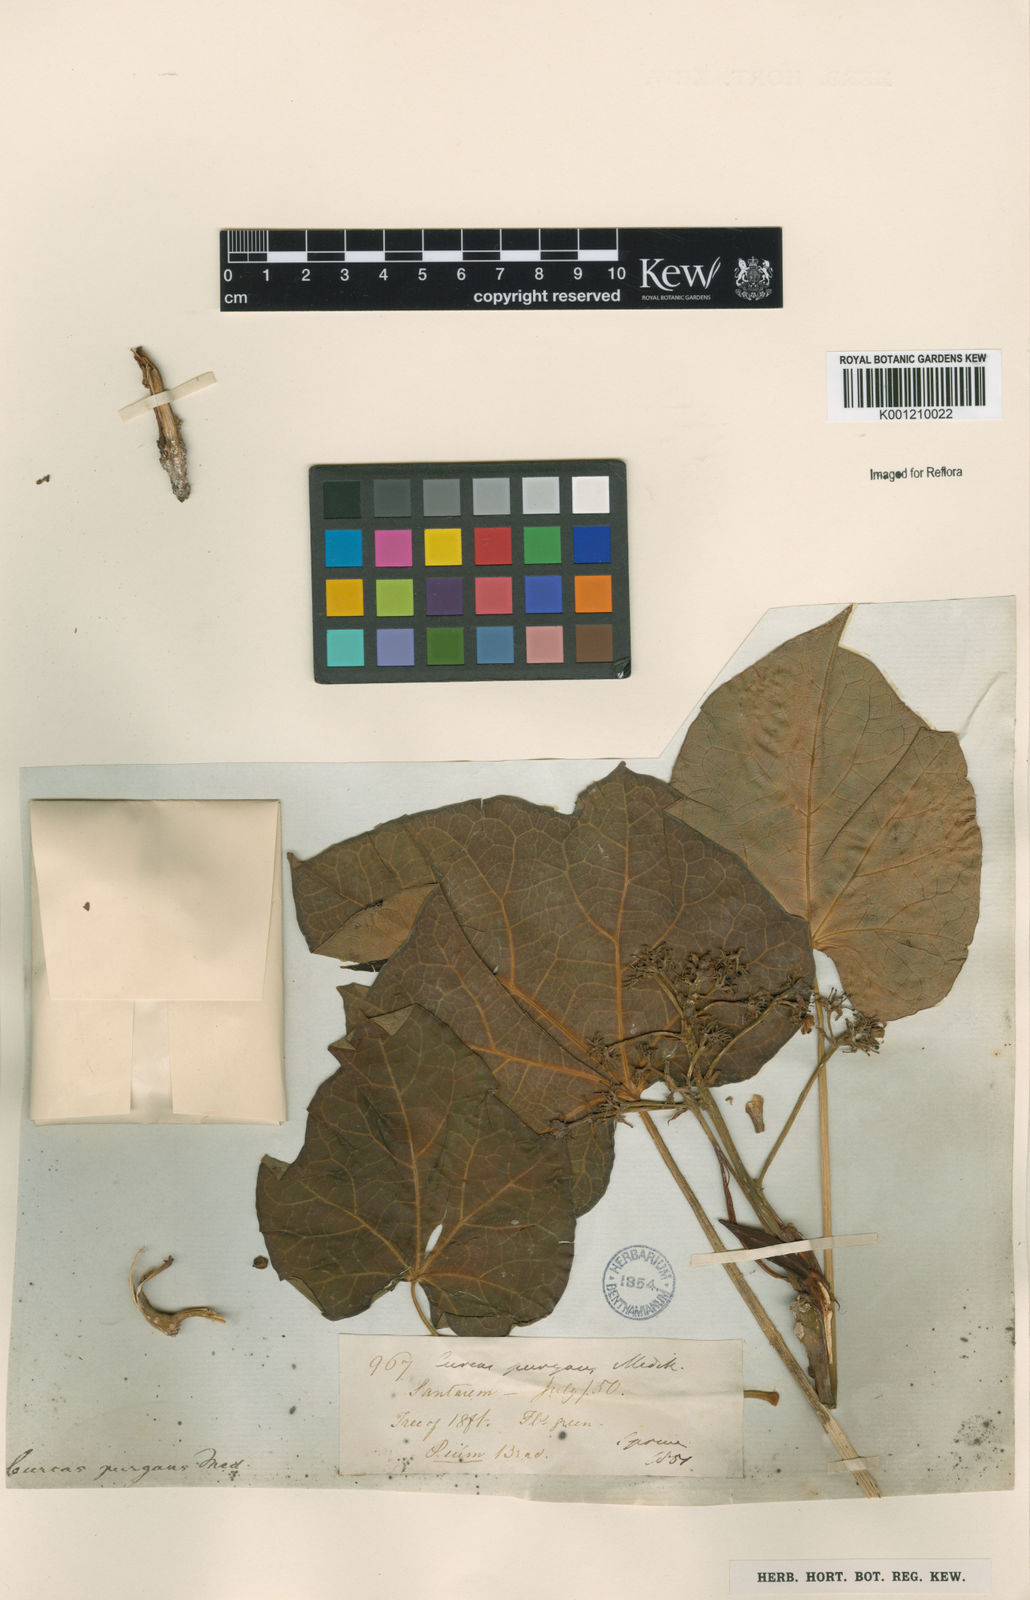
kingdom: Plantae
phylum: Tracheophyta
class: Magnoliopsida
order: Malpighiales
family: Euphorbiaceae
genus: Jatropha
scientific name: Jatropha curcas
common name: Barbados nut
